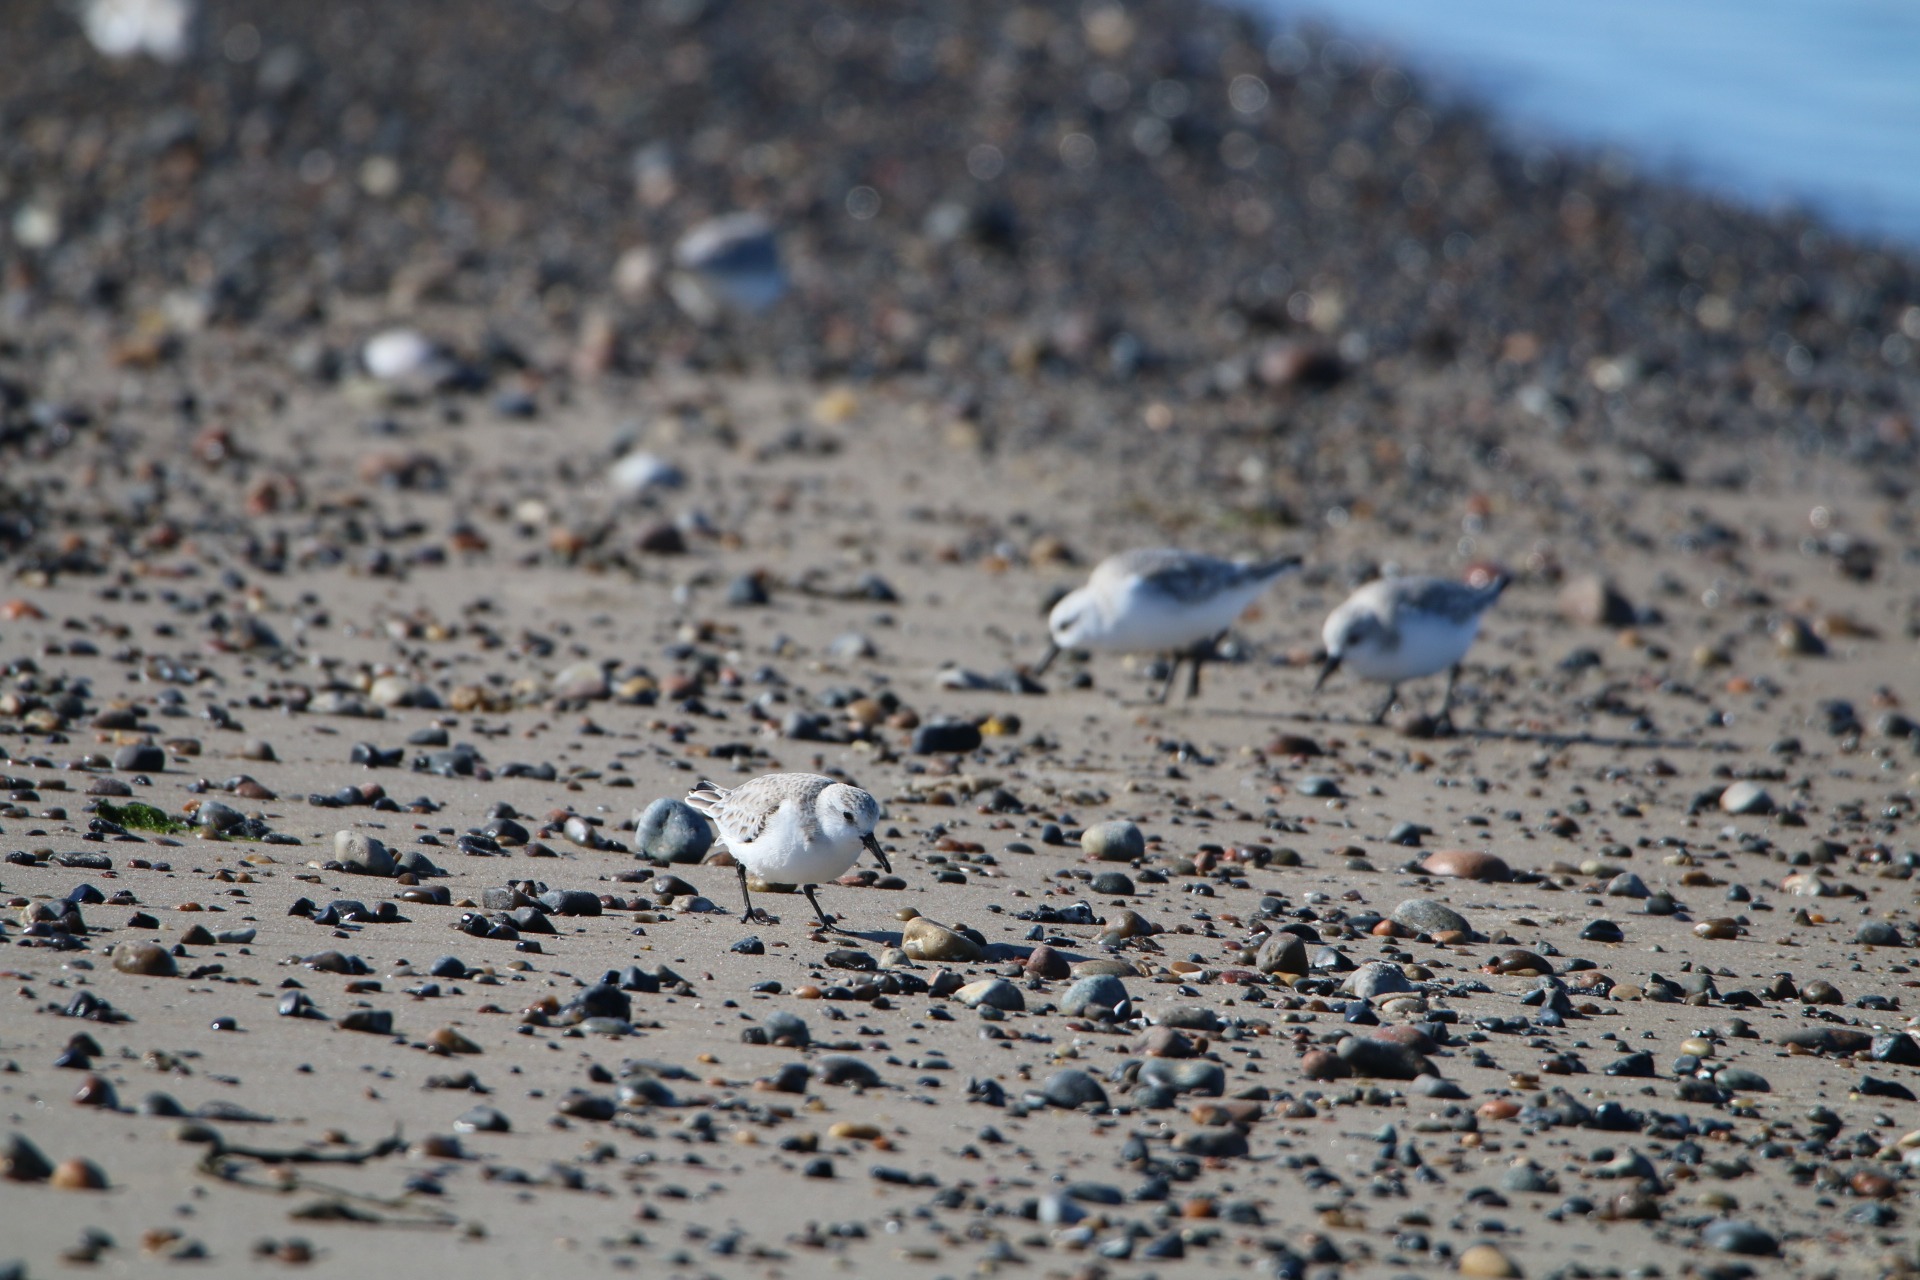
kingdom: Animalia
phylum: Chordata
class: Aves
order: Charadriiformes
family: Scolopacidae
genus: Calidris
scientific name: Calidris alba
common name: Sandløber
